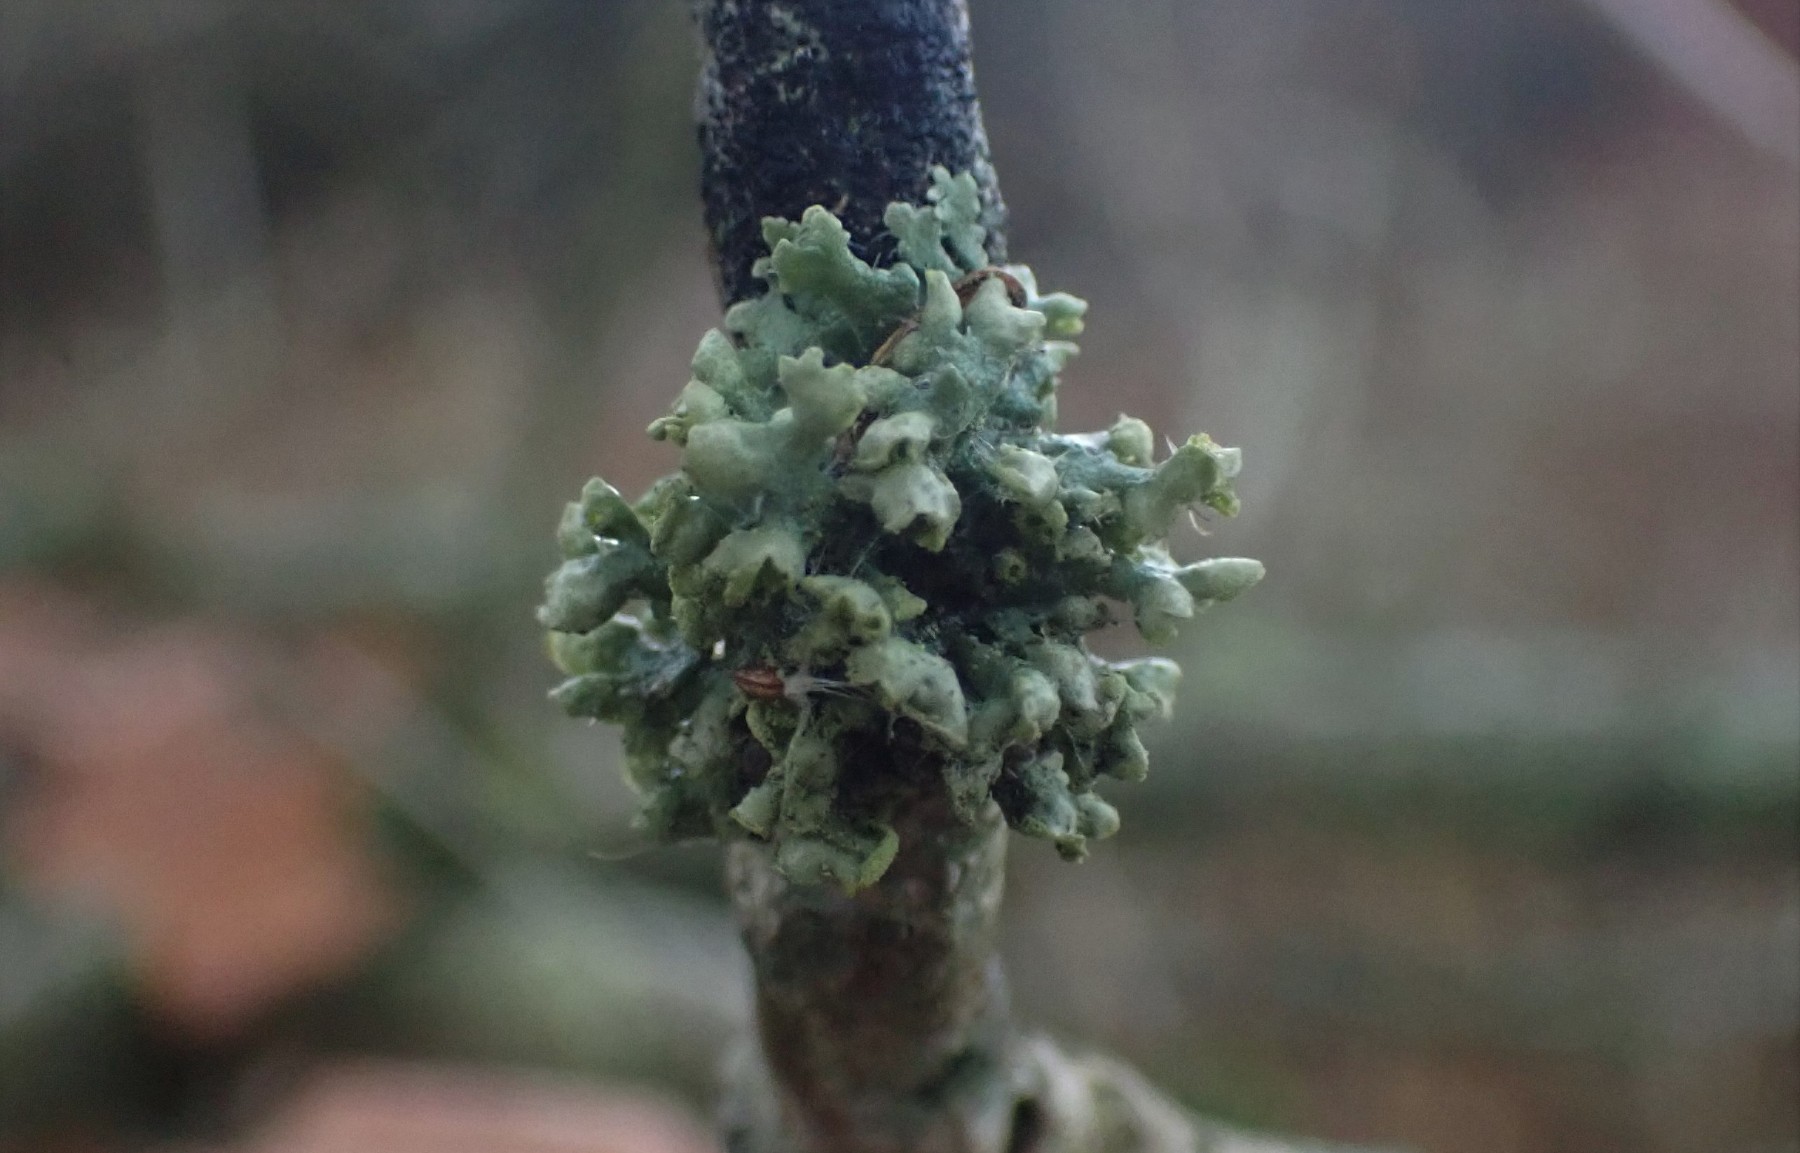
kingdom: Fungi
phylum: Ascomycota
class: Lecanoromycetes
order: Caliciales
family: Physciaceae
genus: Physcia
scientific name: Physcia adscendens
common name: hætte-rosetlav
